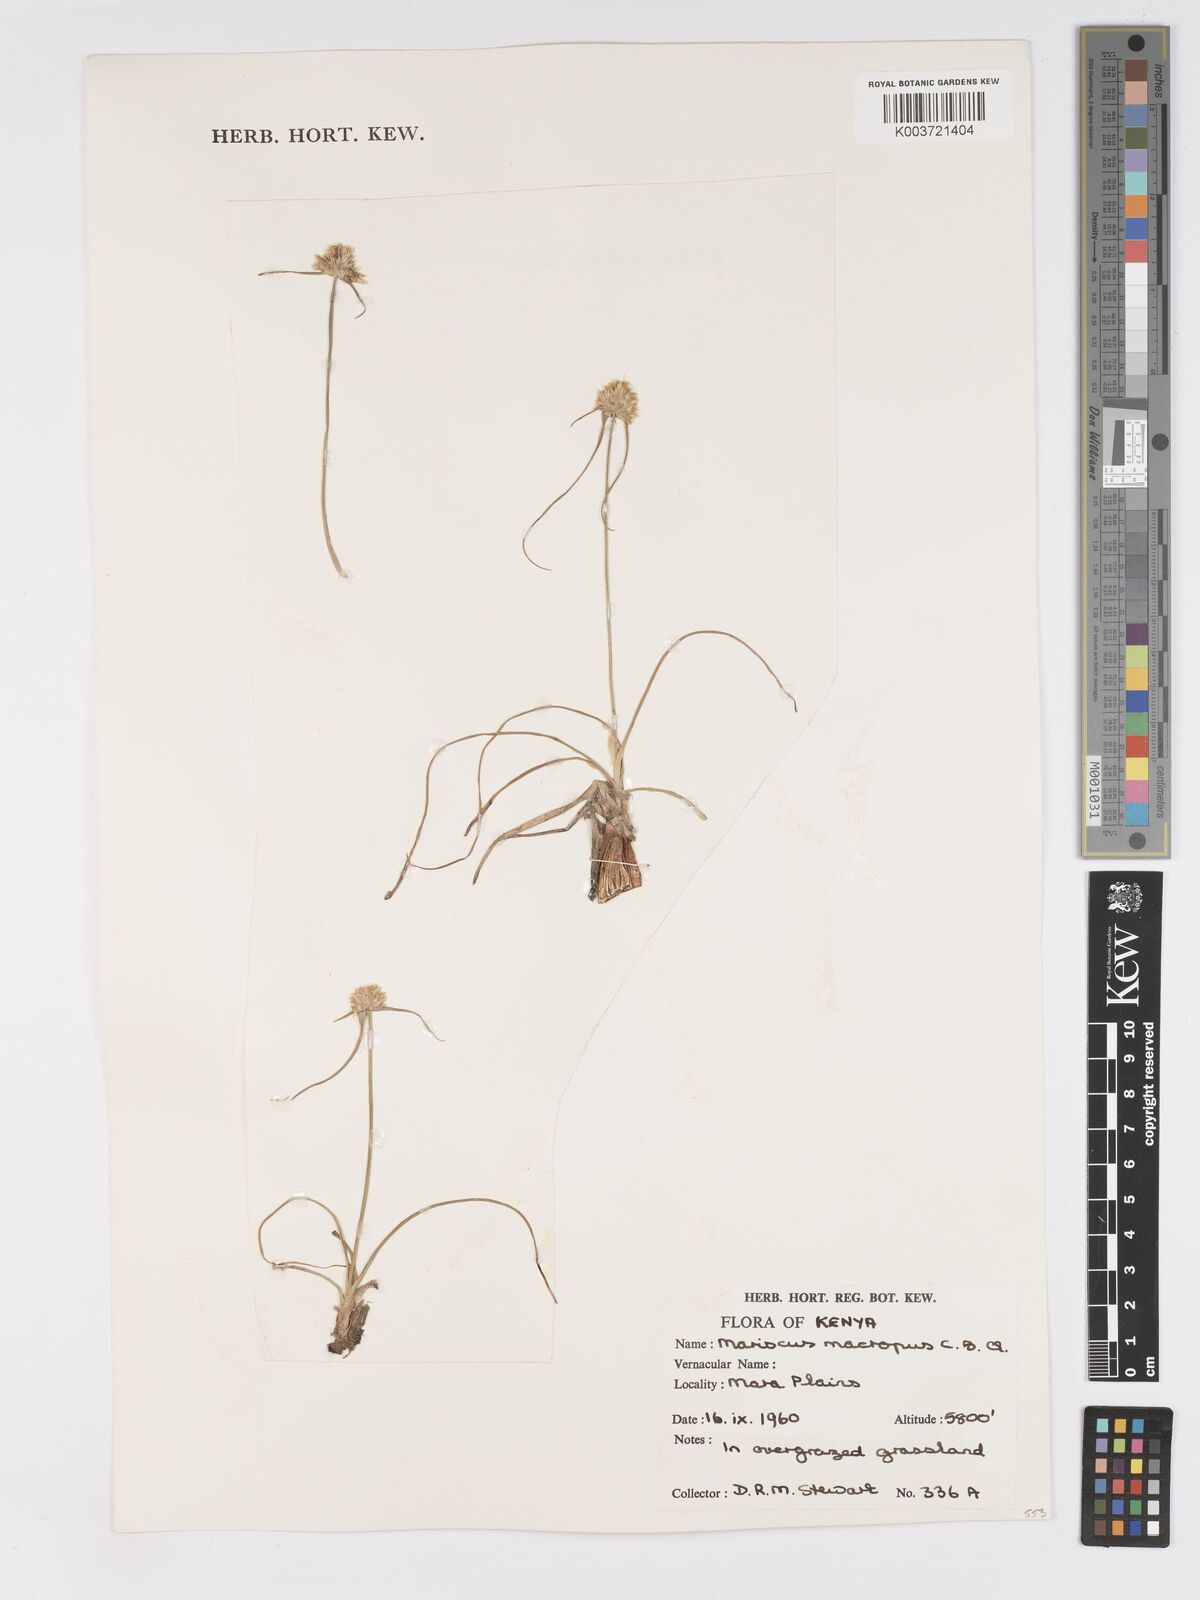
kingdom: Plantae
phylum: Tracheophyta
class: Liliopsida
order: Poales
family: Cyperaceae
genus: Cyperus
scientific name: Cyperus mollipes
